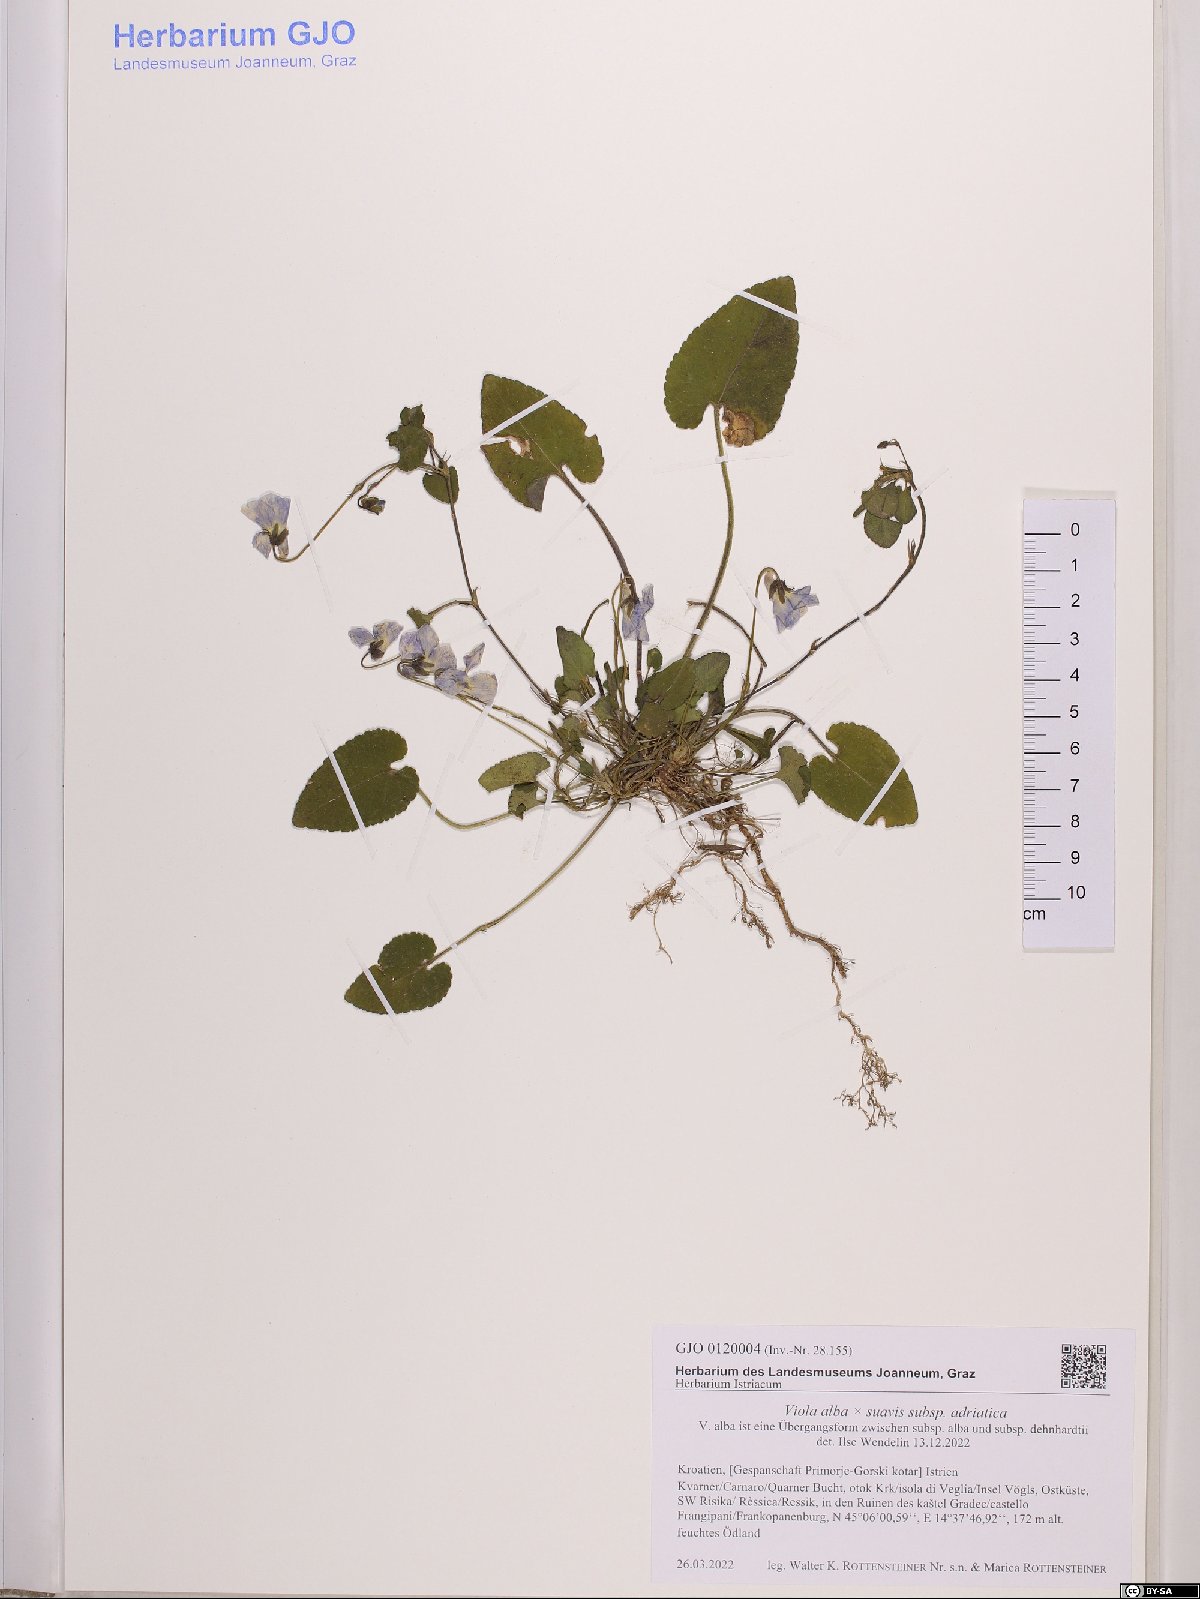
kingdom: Plantae
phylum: Tracheophyta
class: Magnoliopsida
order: Malpighiales
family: Violaceae
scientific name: Violaceae
